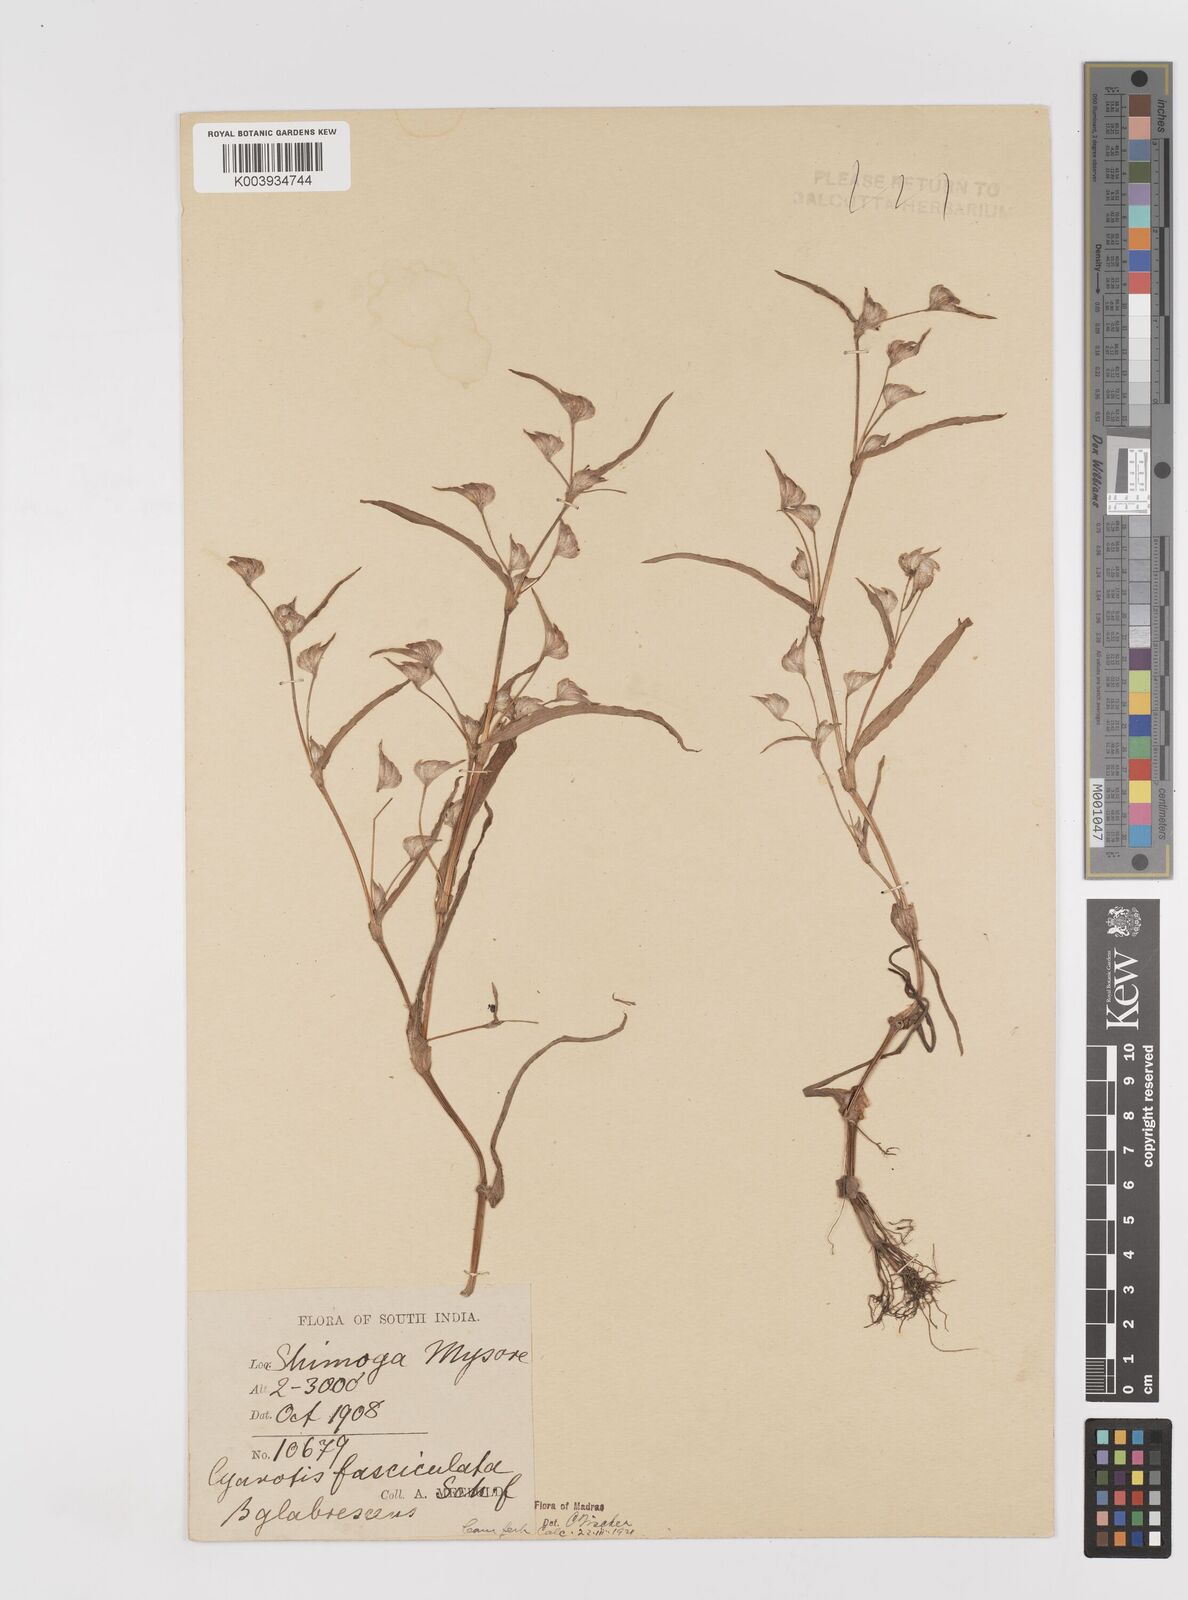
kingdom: Plantae
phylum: Tracheophyta
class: Liliopsida
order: Commelinales
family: Commelinaceae
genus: Cyanotis
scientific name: Cyanotis fasciculata
